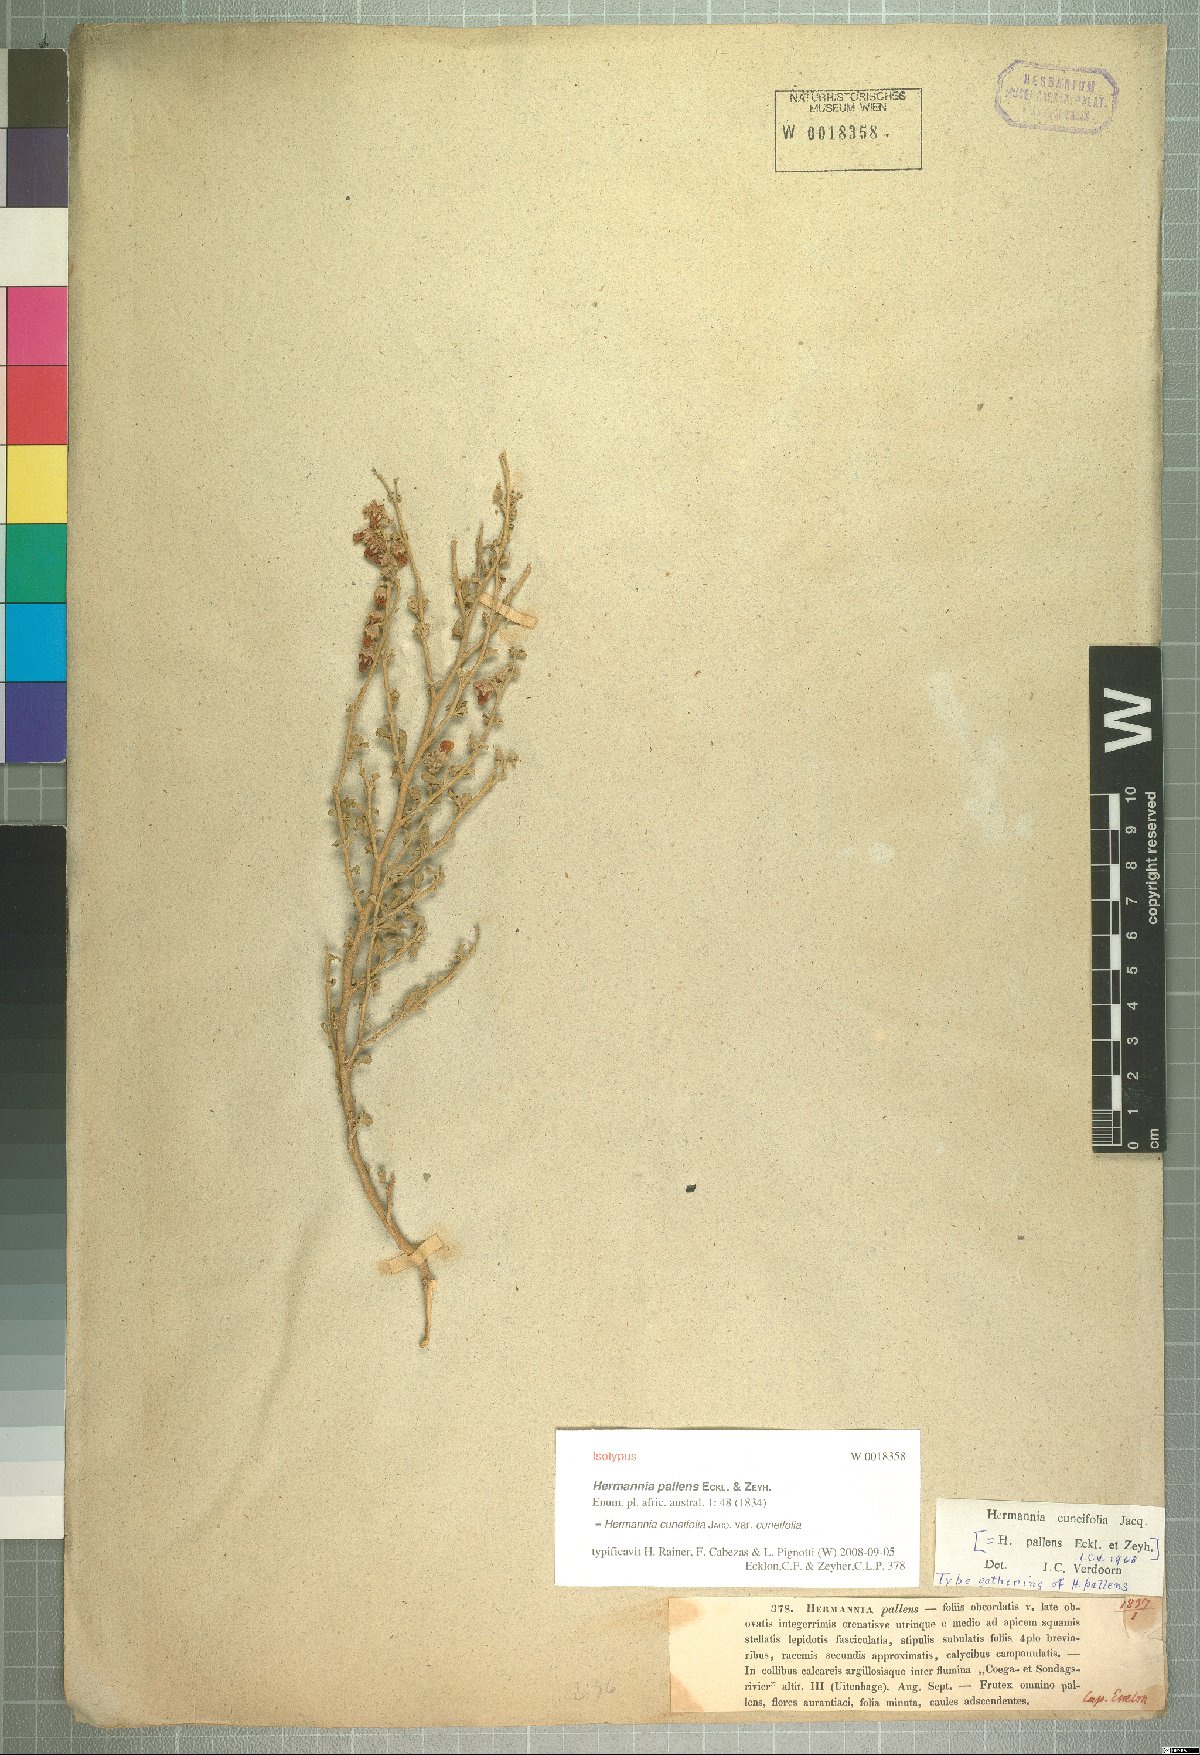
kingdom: Plantae
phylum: Tracheophyta
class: Magnoliopsida
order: Malvales
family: Malvaceae
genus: Hermannia
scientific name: Hermannia cuneifolia
